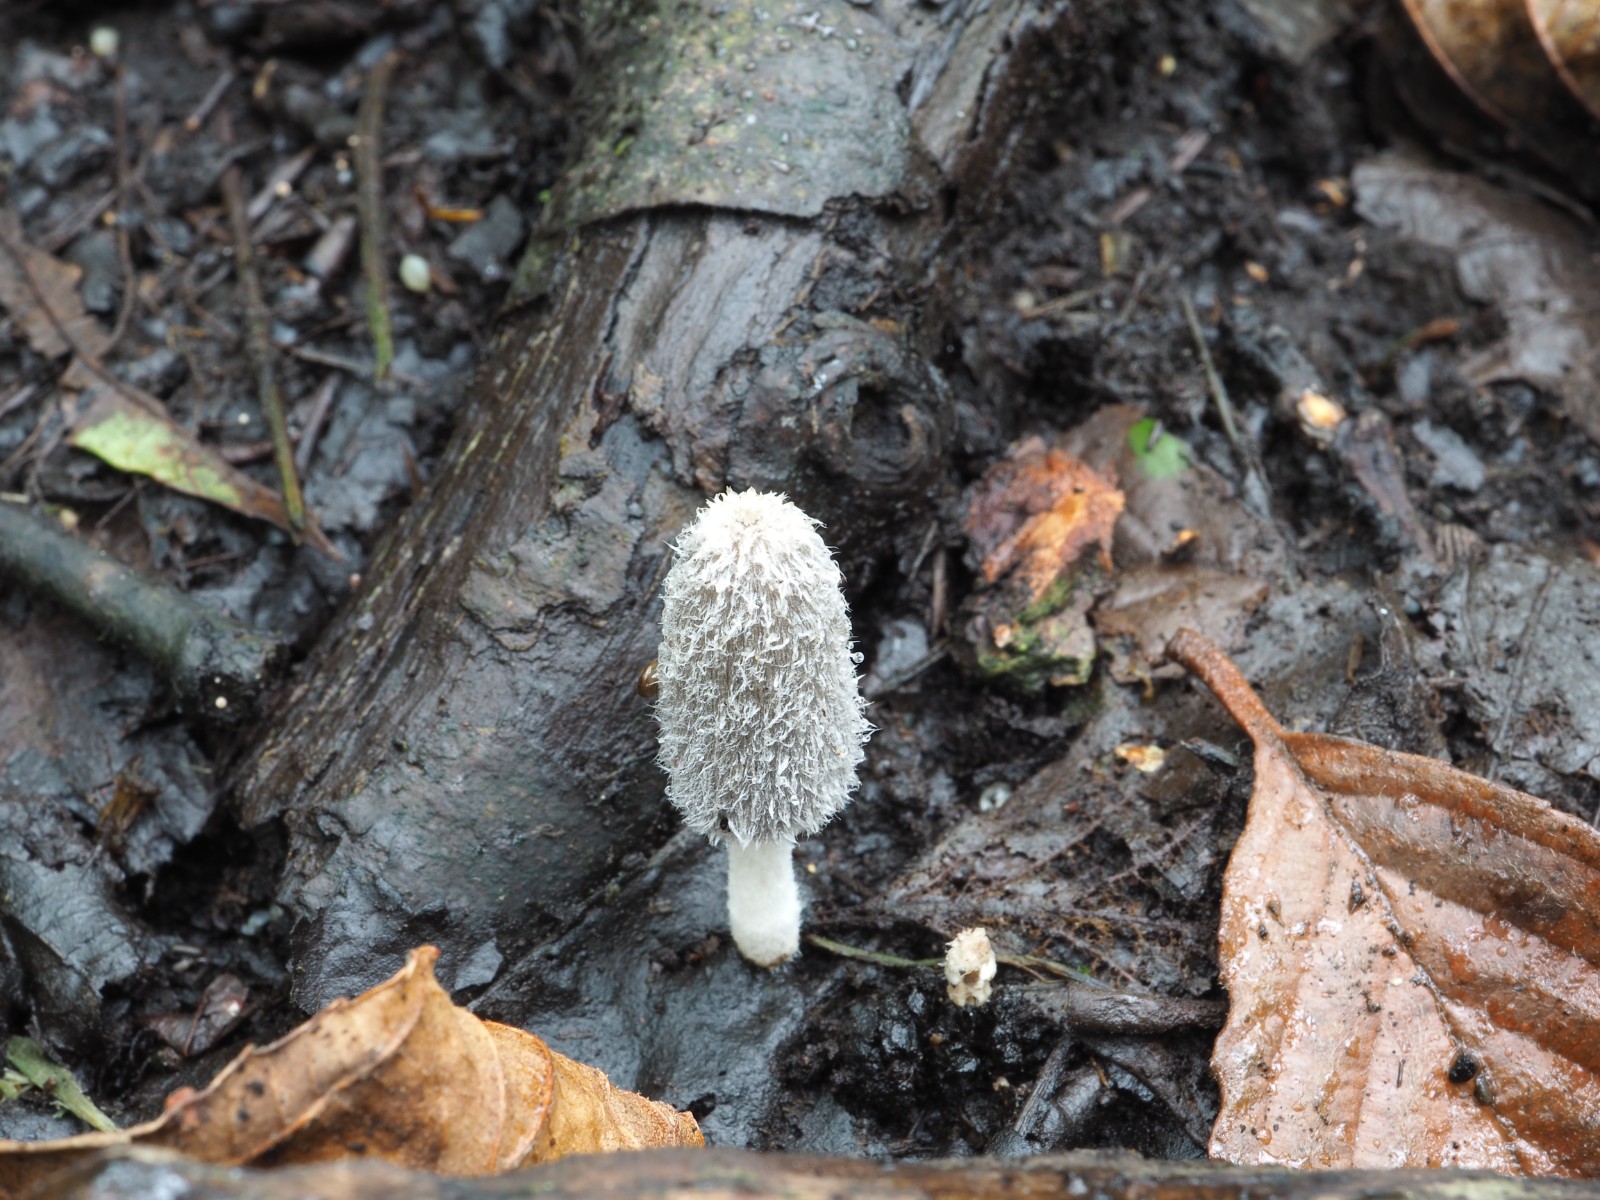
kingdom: Fungi
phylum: Basidiomycota
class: Agaricomycetes
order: Agaricales
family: Psathyrellaceae
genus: Coprinopsis
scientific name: Coprinopsis lagopus
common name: dunstokket blækhat
